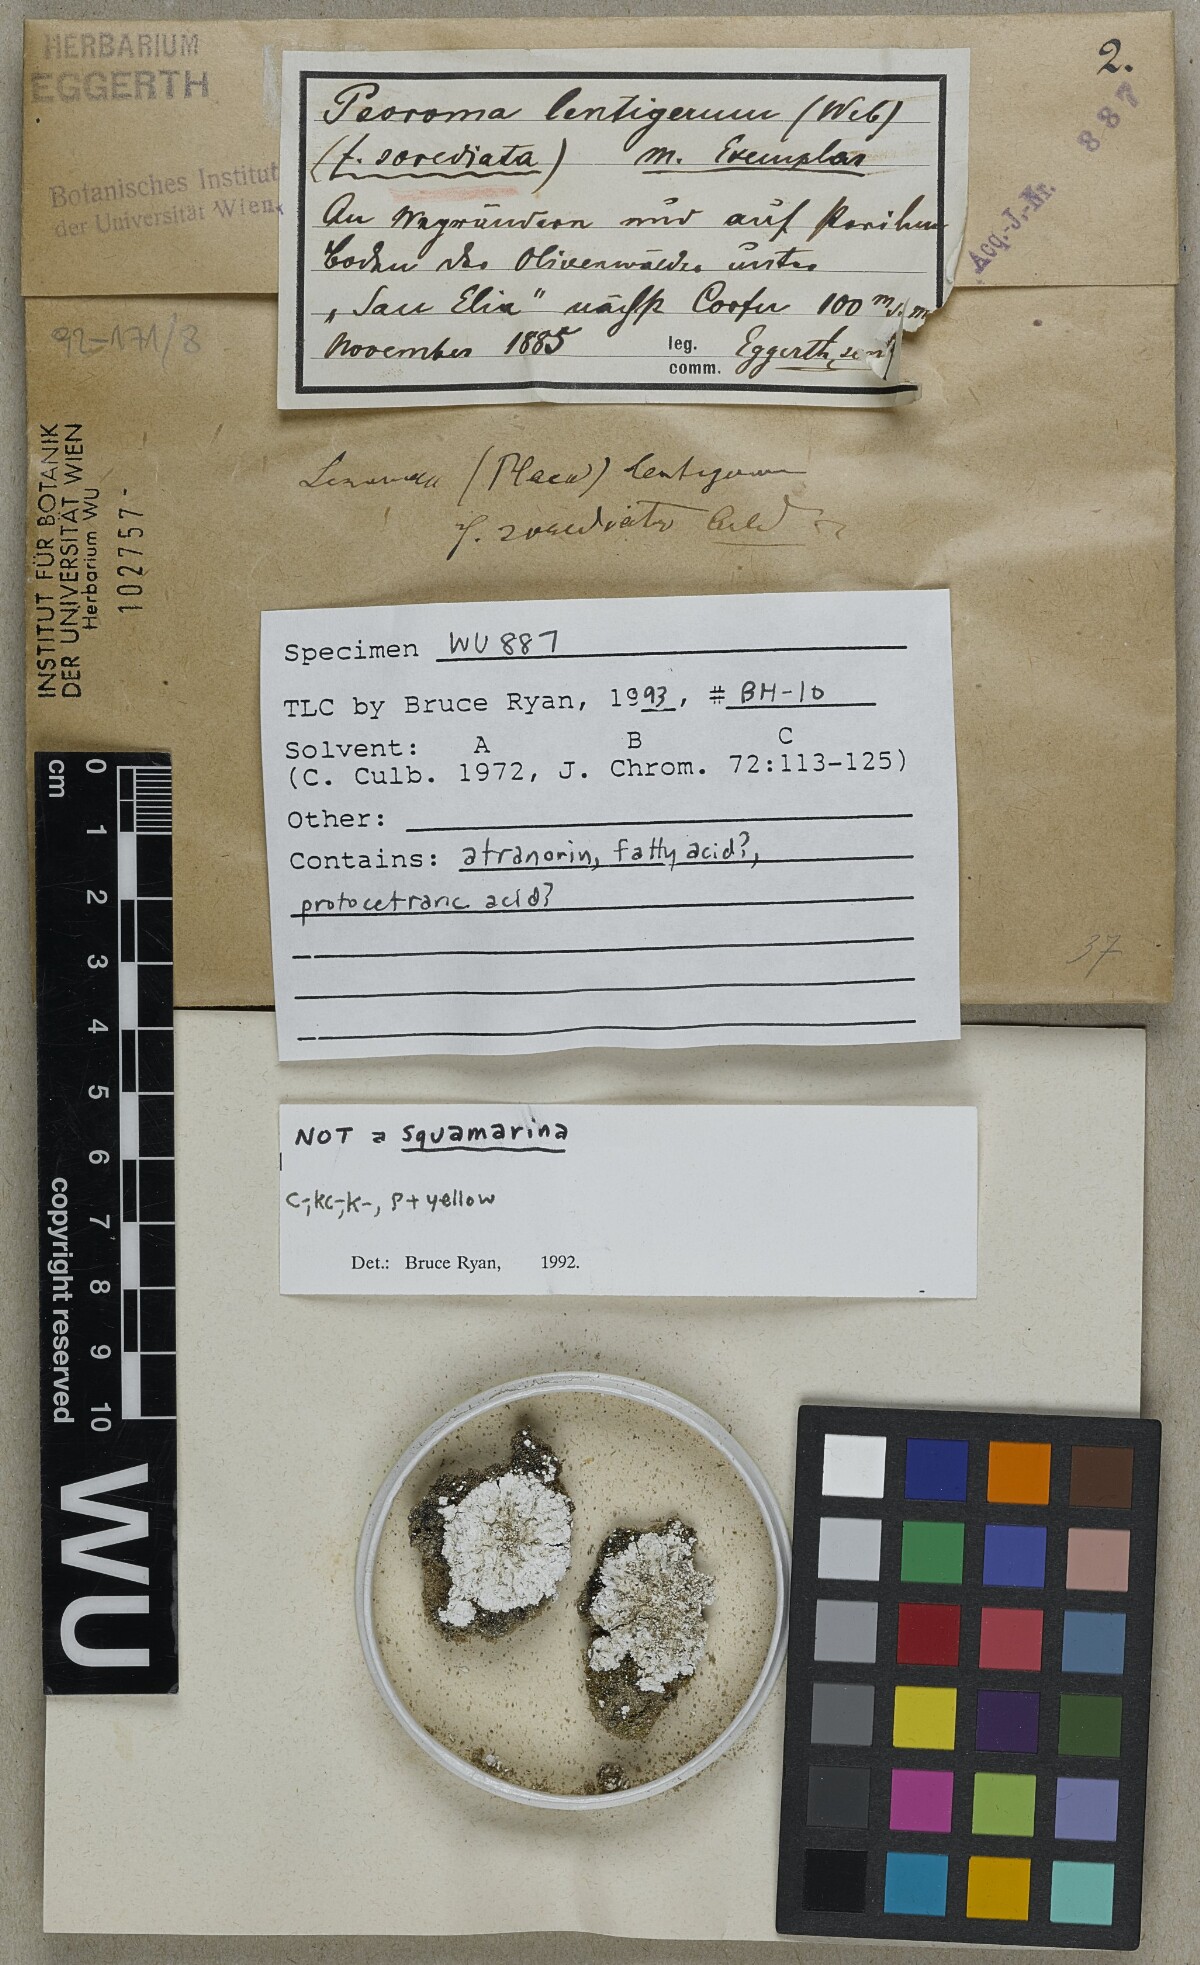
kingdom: Fungi
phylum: Ascomycota
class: Lecanoromycetes
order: Lecanorales
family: Stereocaulaceae
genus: Squamarina
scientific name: Squamarina lentigera
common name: Scaly breck-lichen
